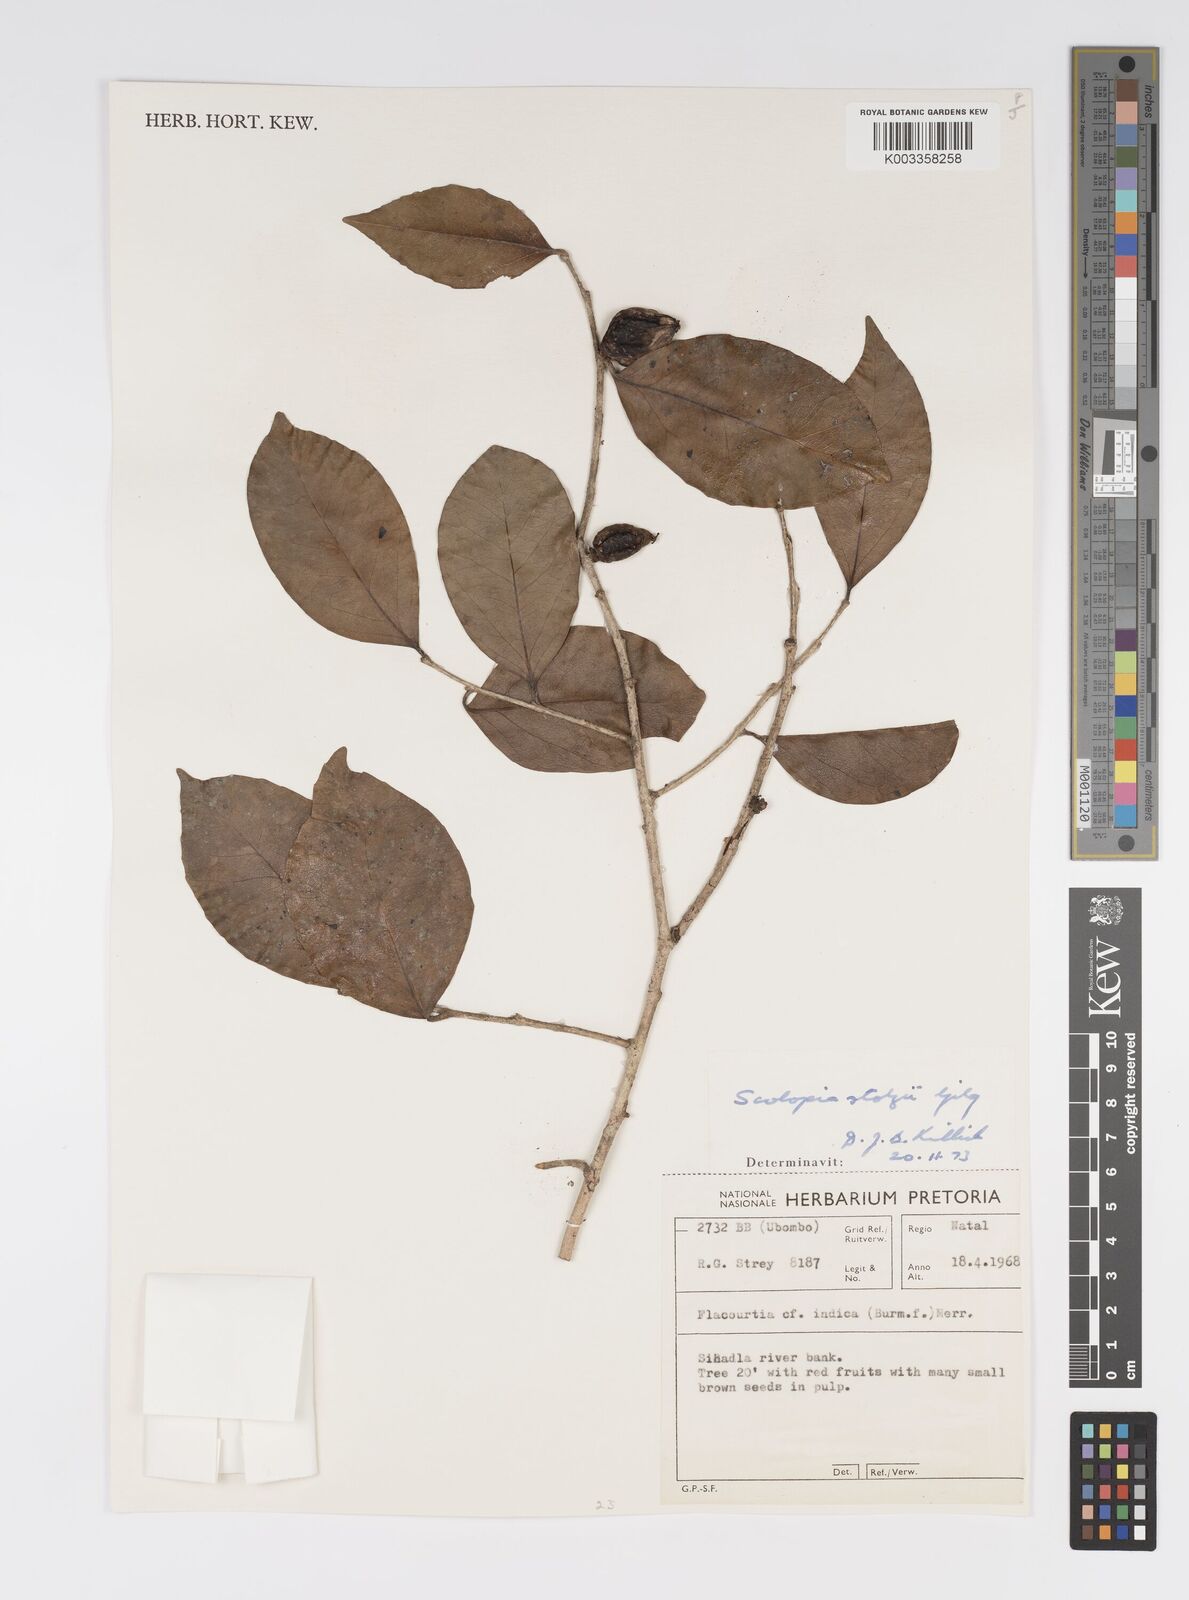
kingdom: Plantae
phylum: Tracheophyta
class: Magnoliopsida
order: Malpighiales
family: Salicaceae
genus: Scolopia
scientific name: Scolopia stolzii
